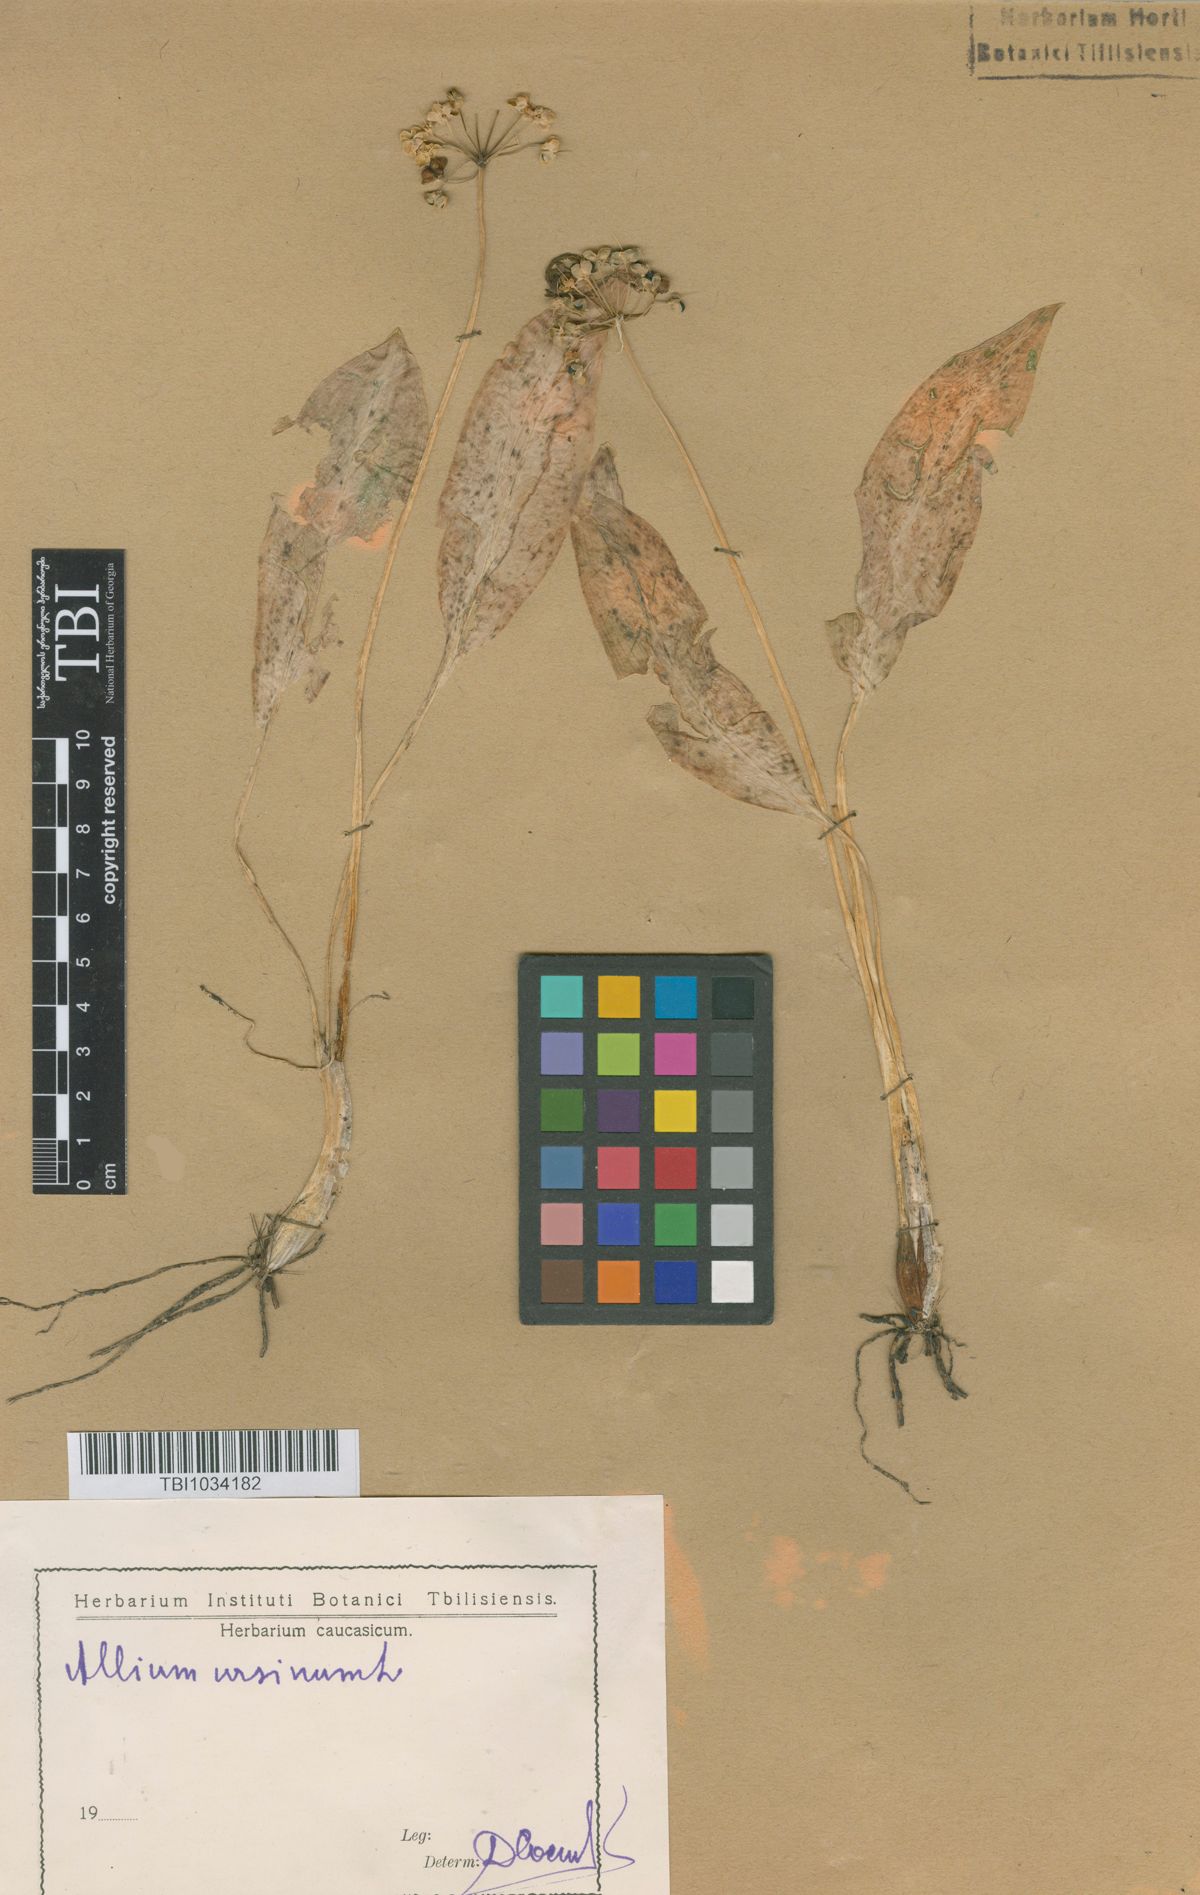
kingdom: Plantae
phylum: Tracheophyta
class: Liliopsida
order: Asparagales
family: Amaryllidaceae
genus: Allium
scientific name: Allium ursinum
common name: Ramsons
